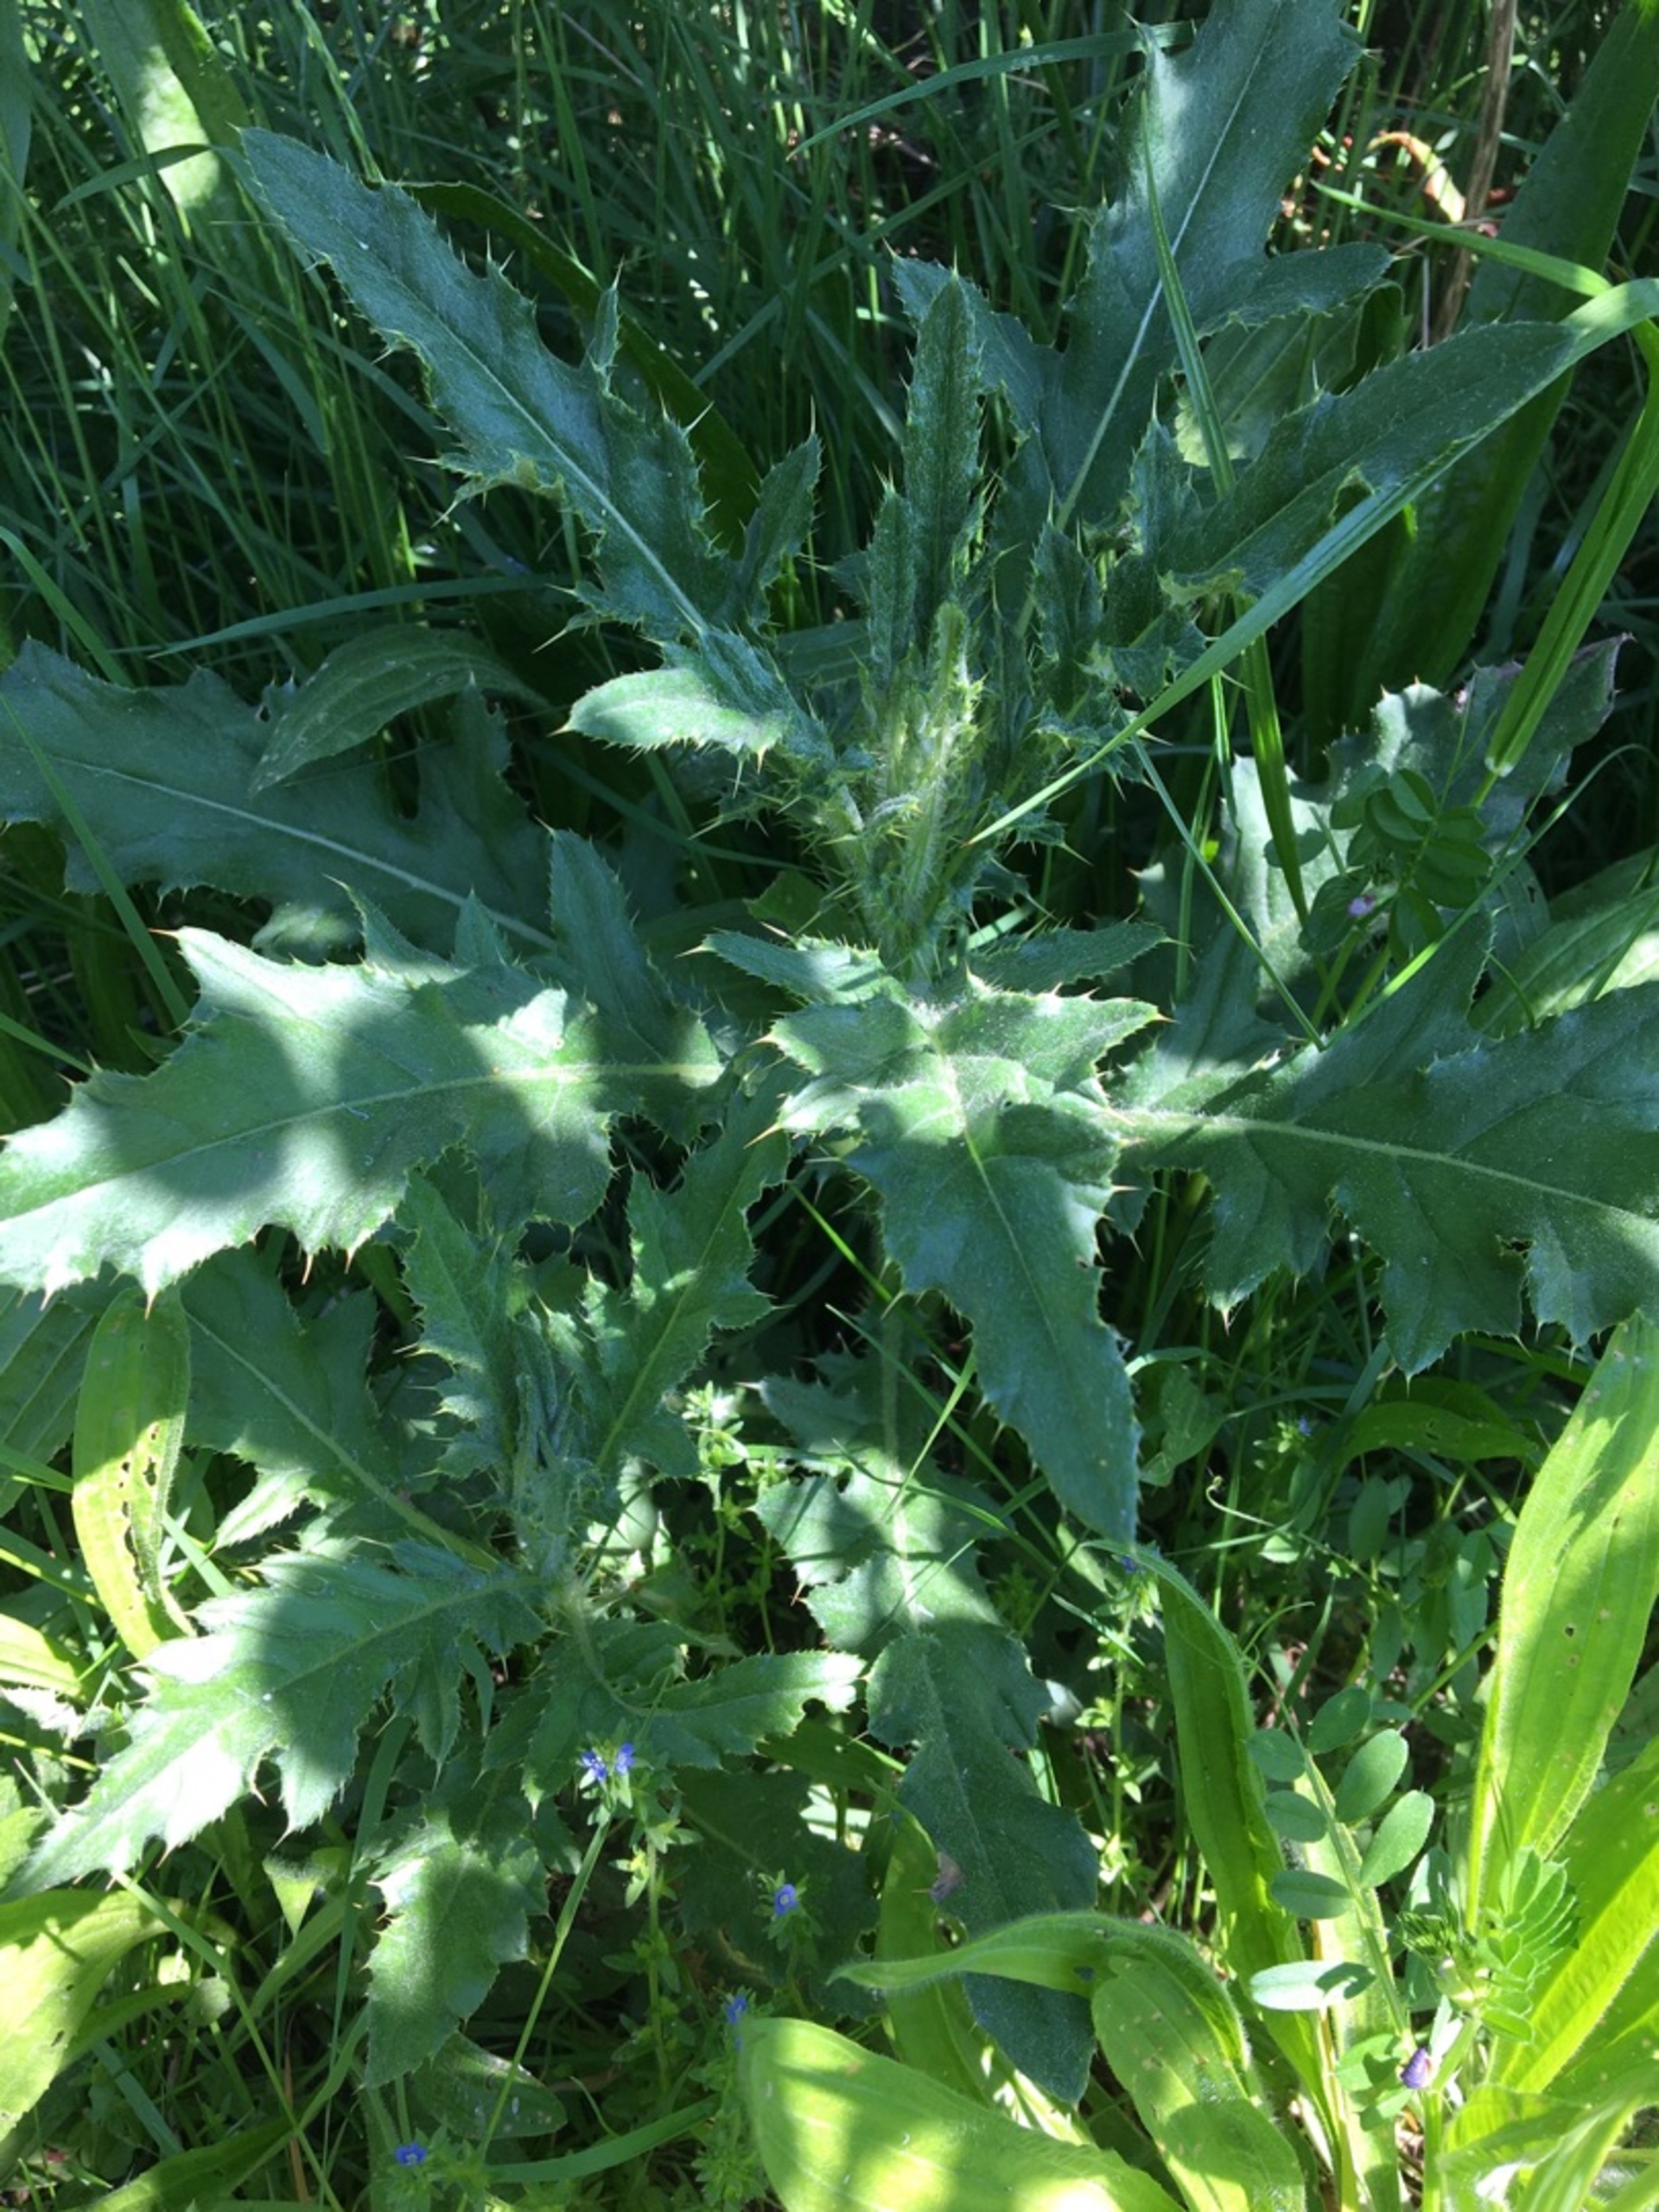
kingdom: Plantae
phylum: Tracheophyta
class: Magnoliopsida
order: Asterales
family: Asteraceae
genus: Cirsium
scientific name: Cirsium arvense
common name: Ager-tidsel
